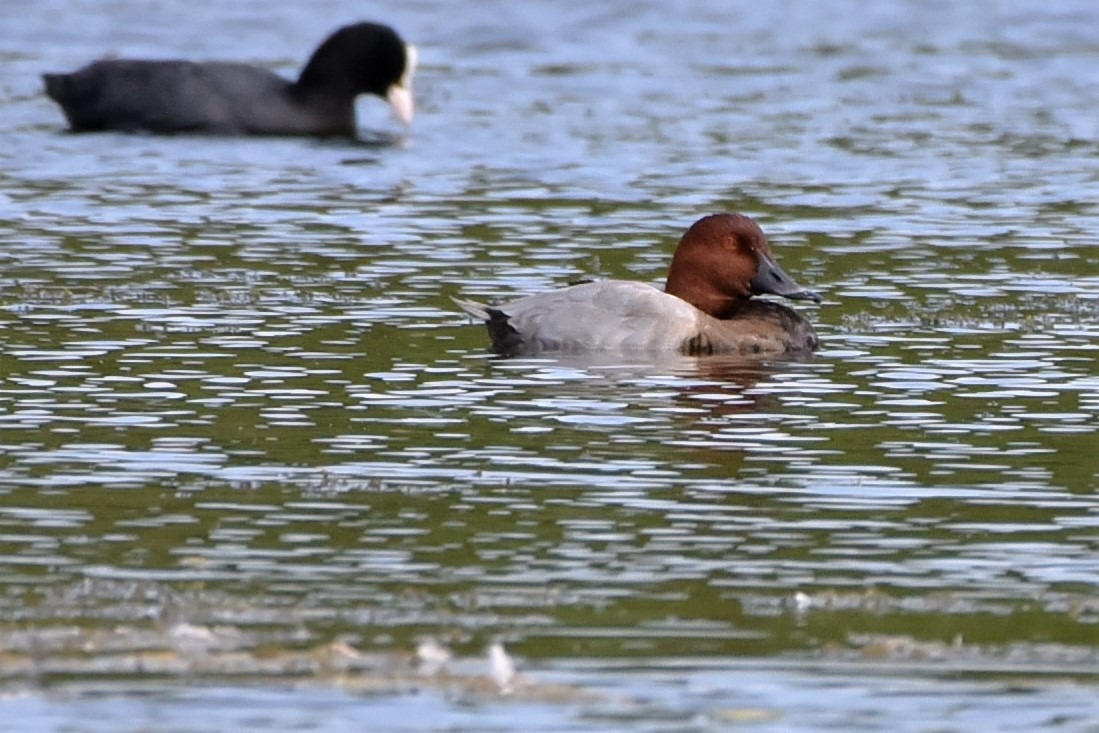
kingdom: Animalia
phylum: Chordata
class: Aves
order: Anseriformes
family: Anatidae
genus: Aythya
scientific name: Aythya ferina
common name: Taffeland
